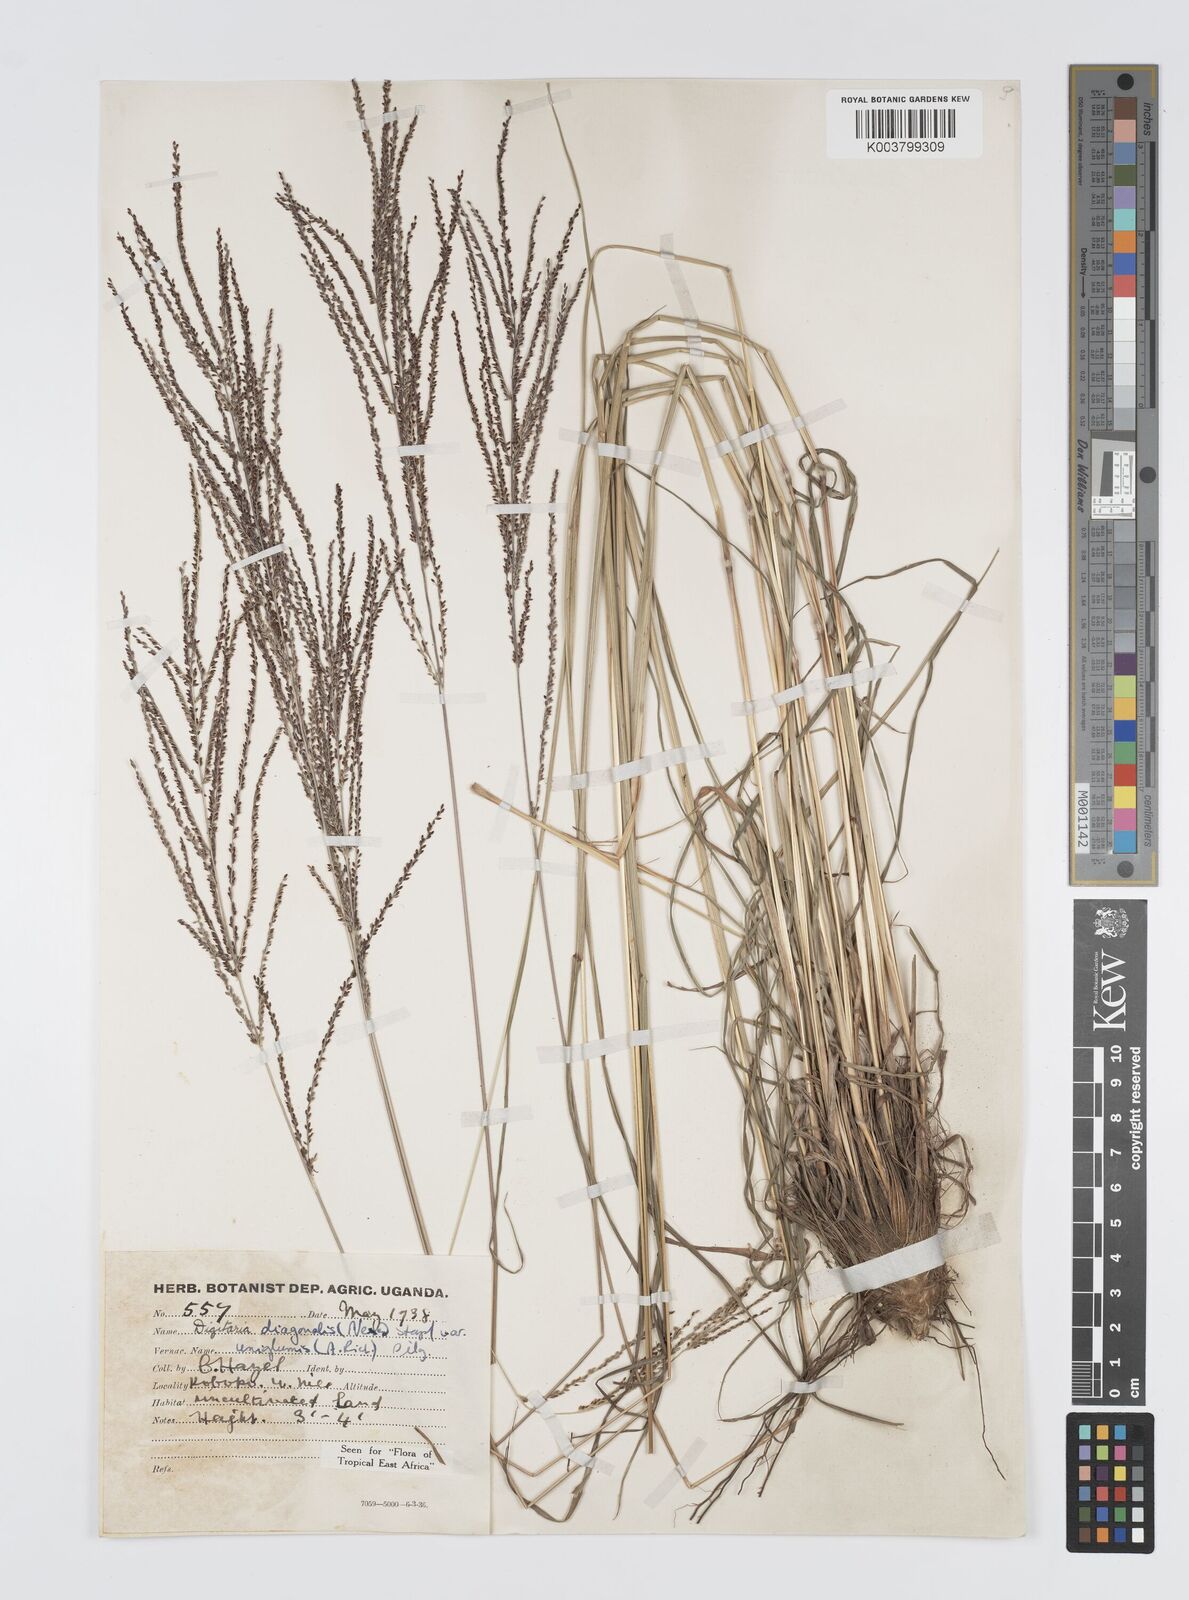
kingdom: Plantae
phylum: Tracheophyta
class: Liliopsida
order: Poales
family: Poaceae
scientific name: Poaceae
